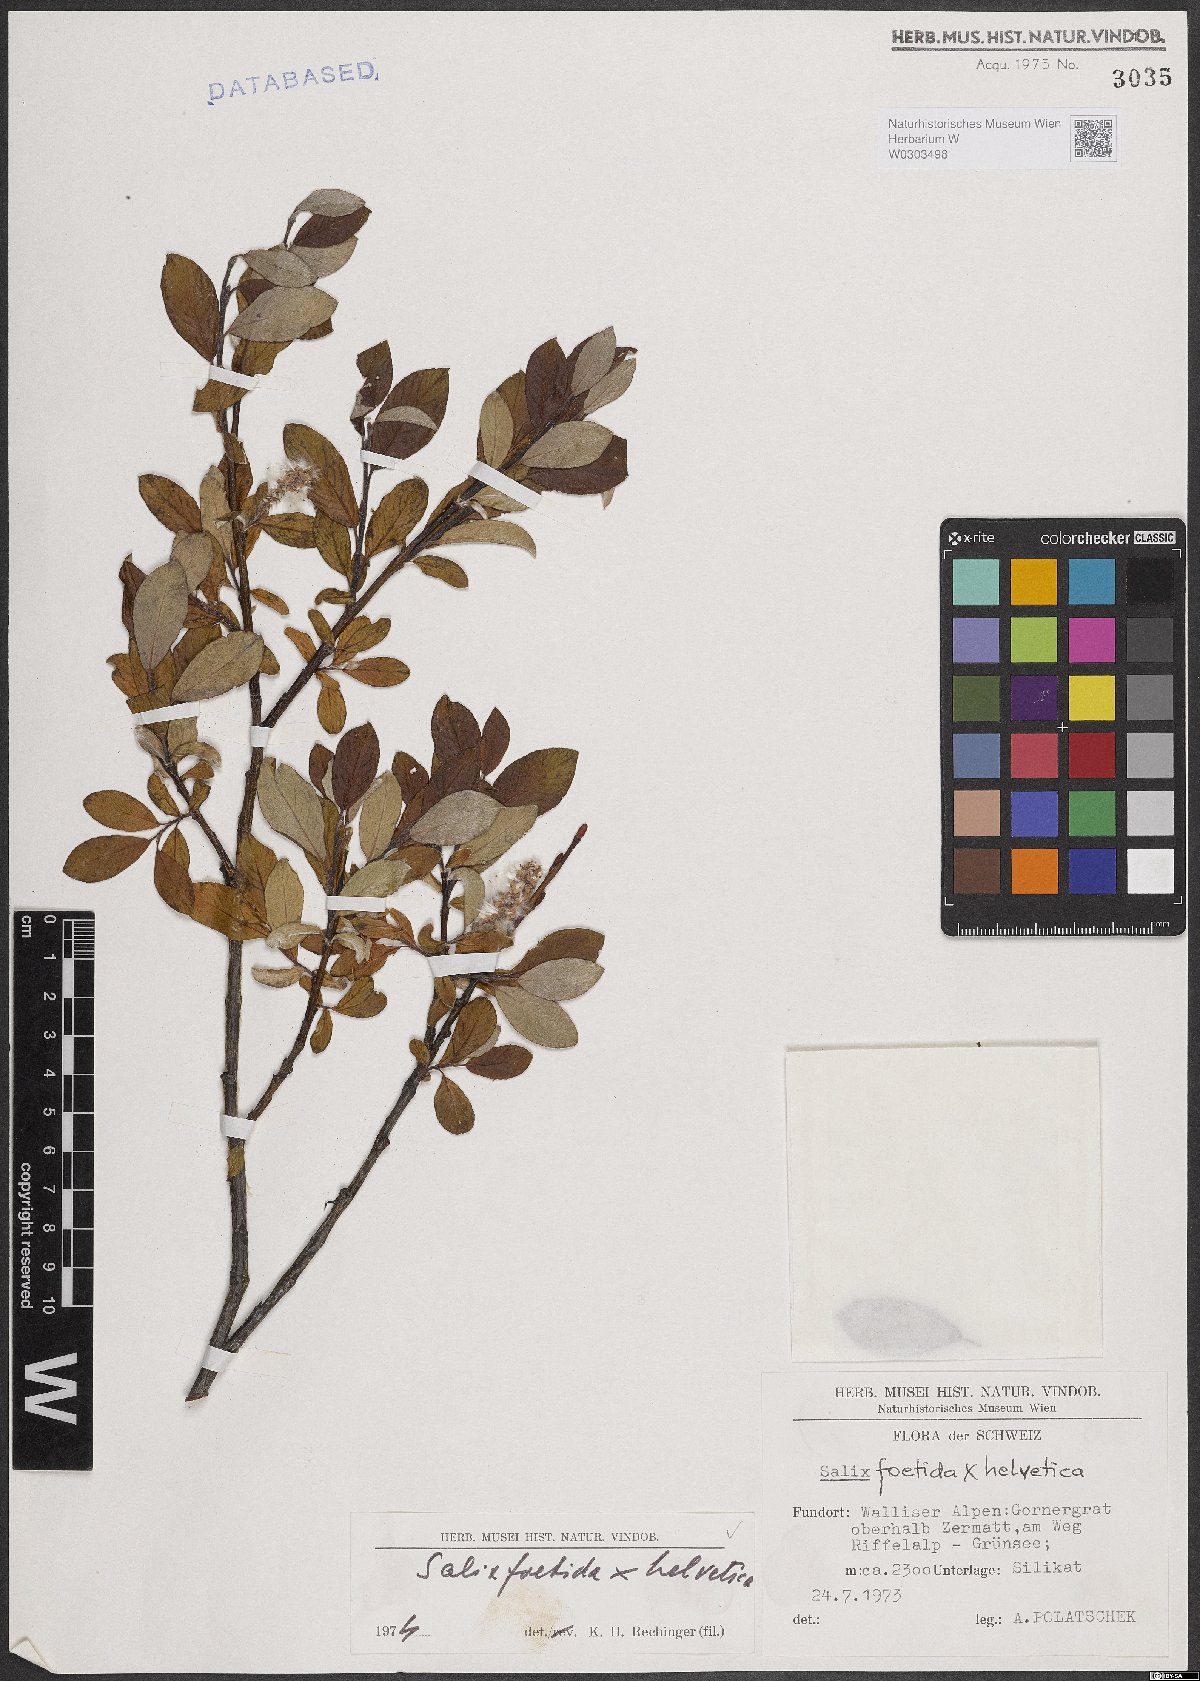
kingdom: Plantae
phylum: Tracheophyta
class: Magnoliopsida
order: Malpighiales
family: Salicaceae
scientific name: Salicaceae
